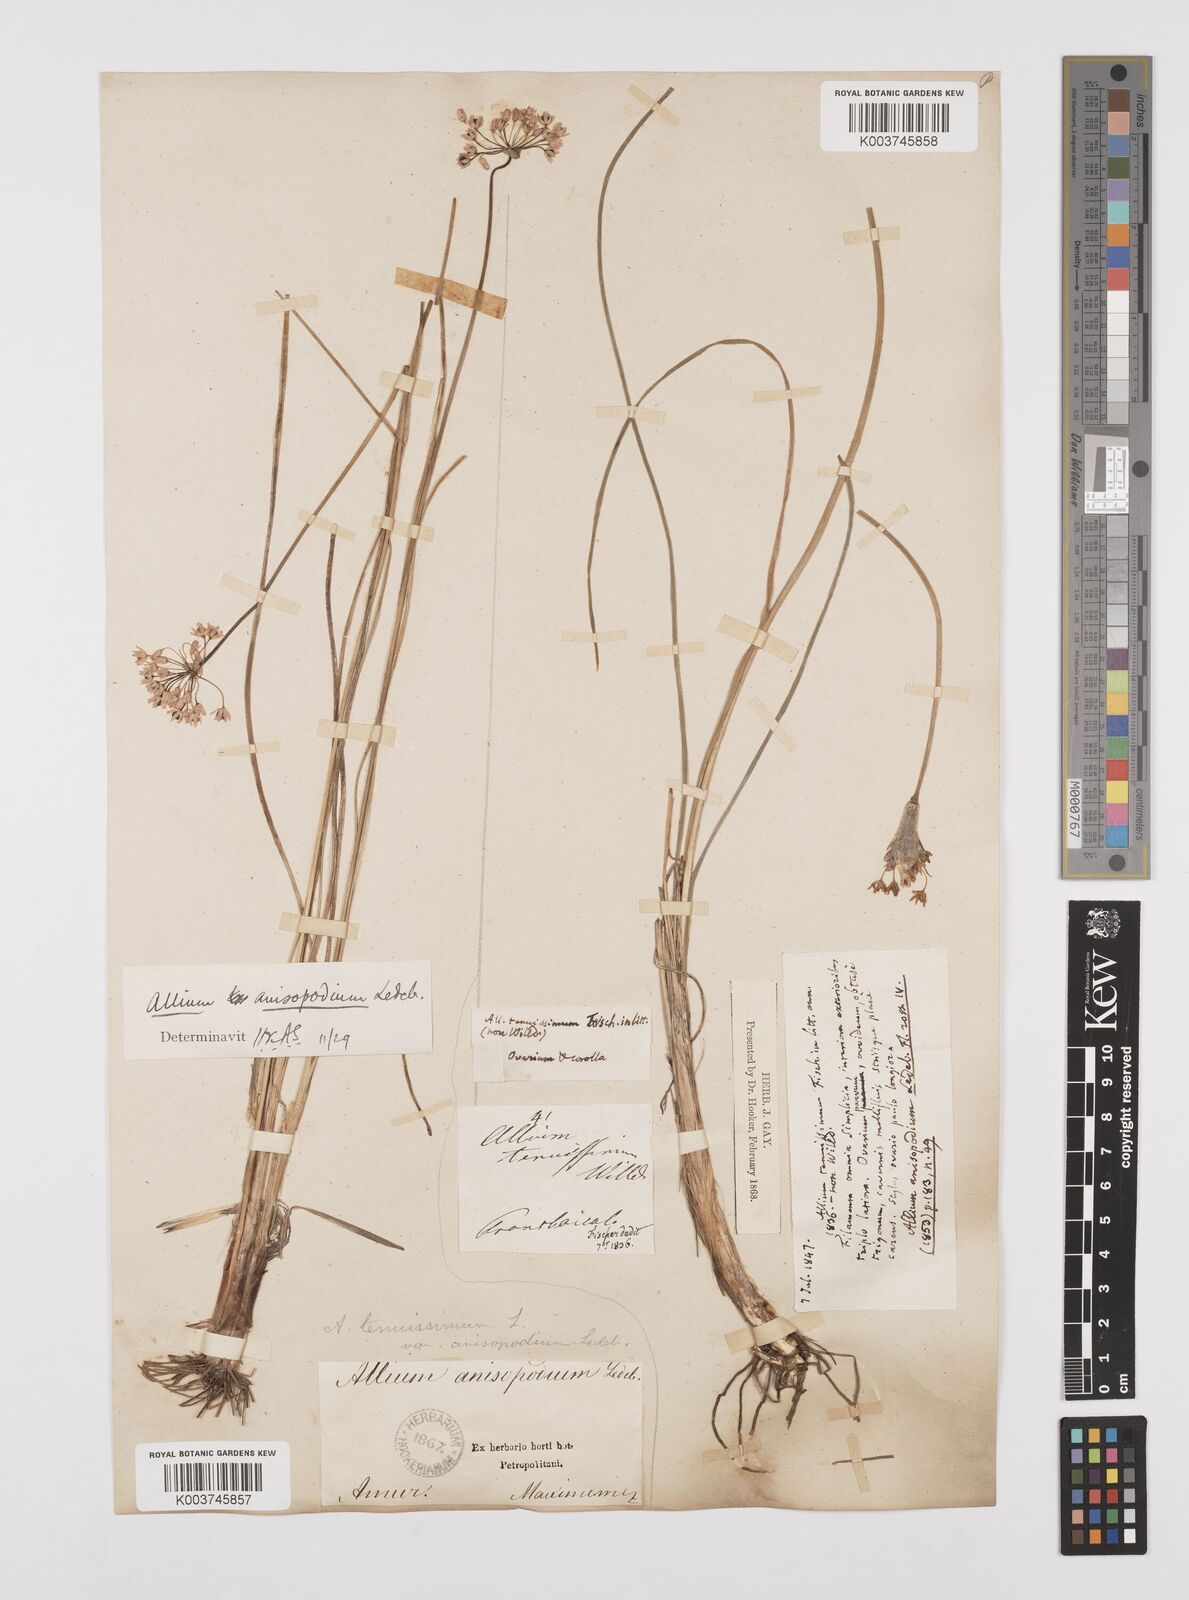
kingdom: Plantae
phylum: Tracheophyta
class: Liliopsida
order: Asparagales
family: Amaryllidaceae
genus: Allium
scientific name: Allium anisopodium
